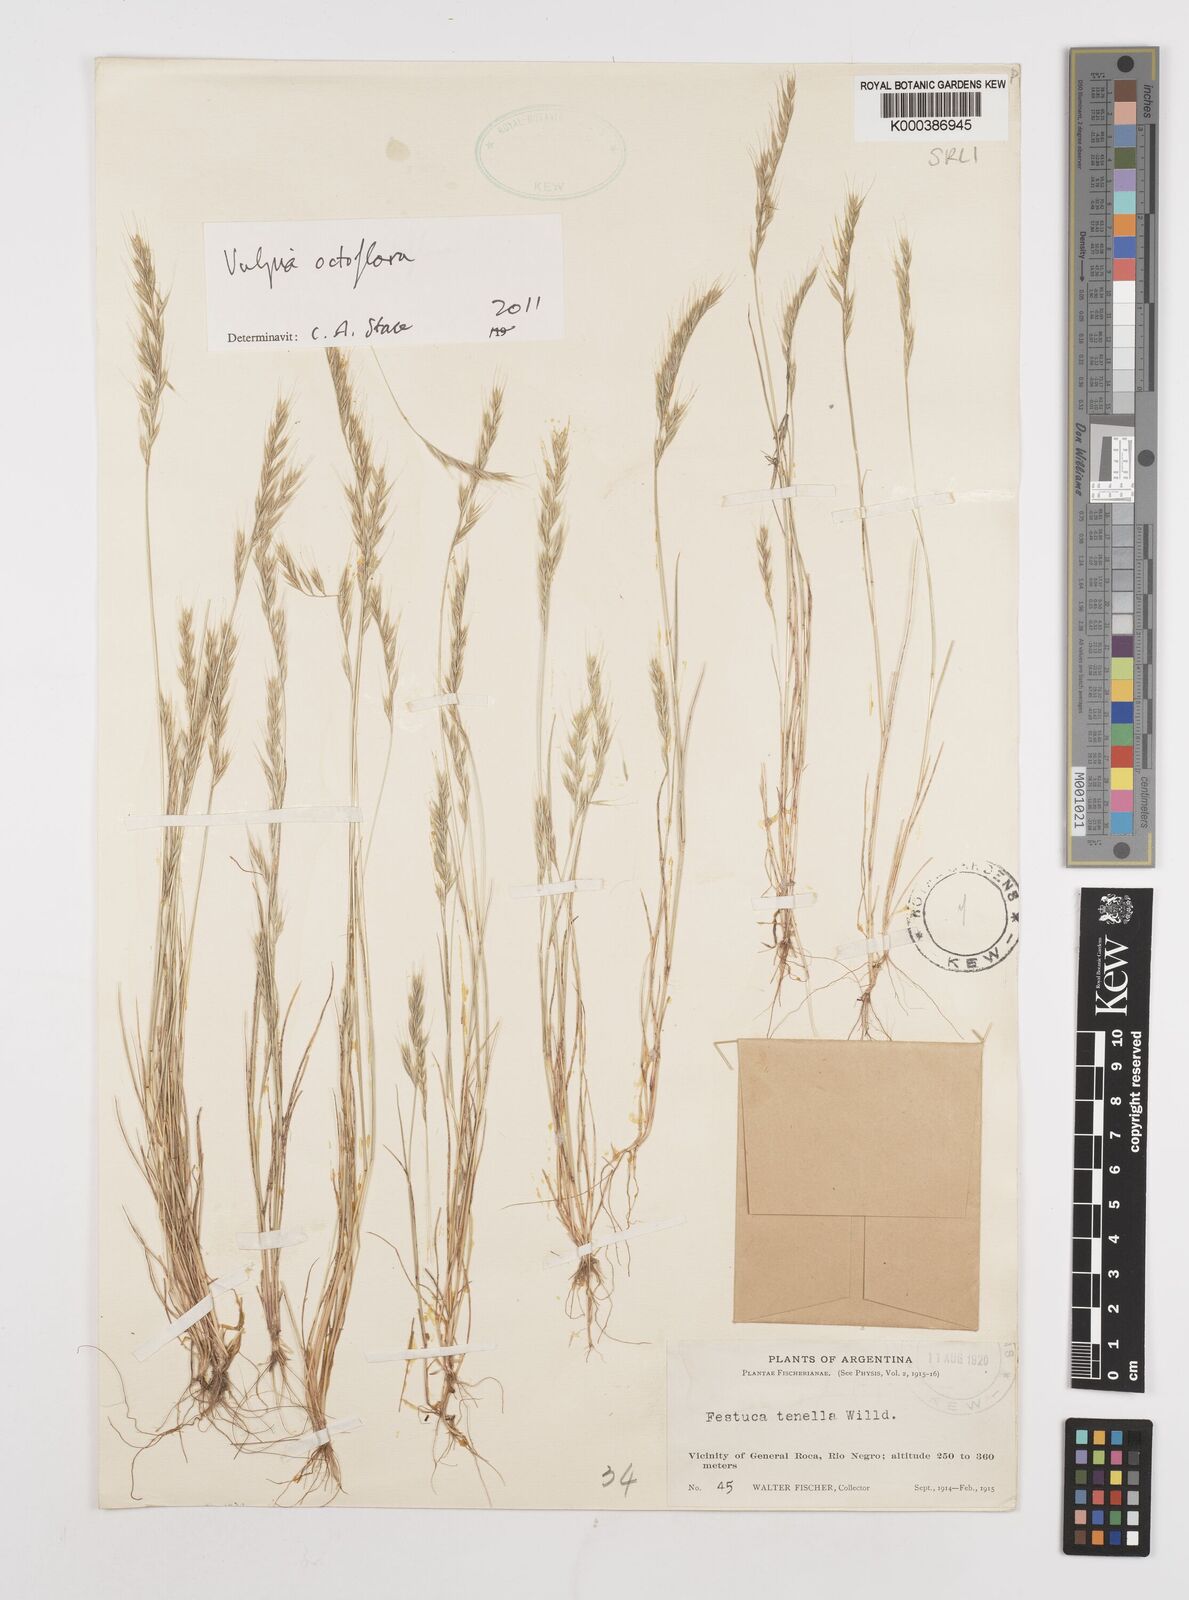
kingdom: Plantae
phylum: Tracheophyta
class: Liliopsida
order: Poales
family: Poaceae
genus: Festuca
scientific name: Festuca
